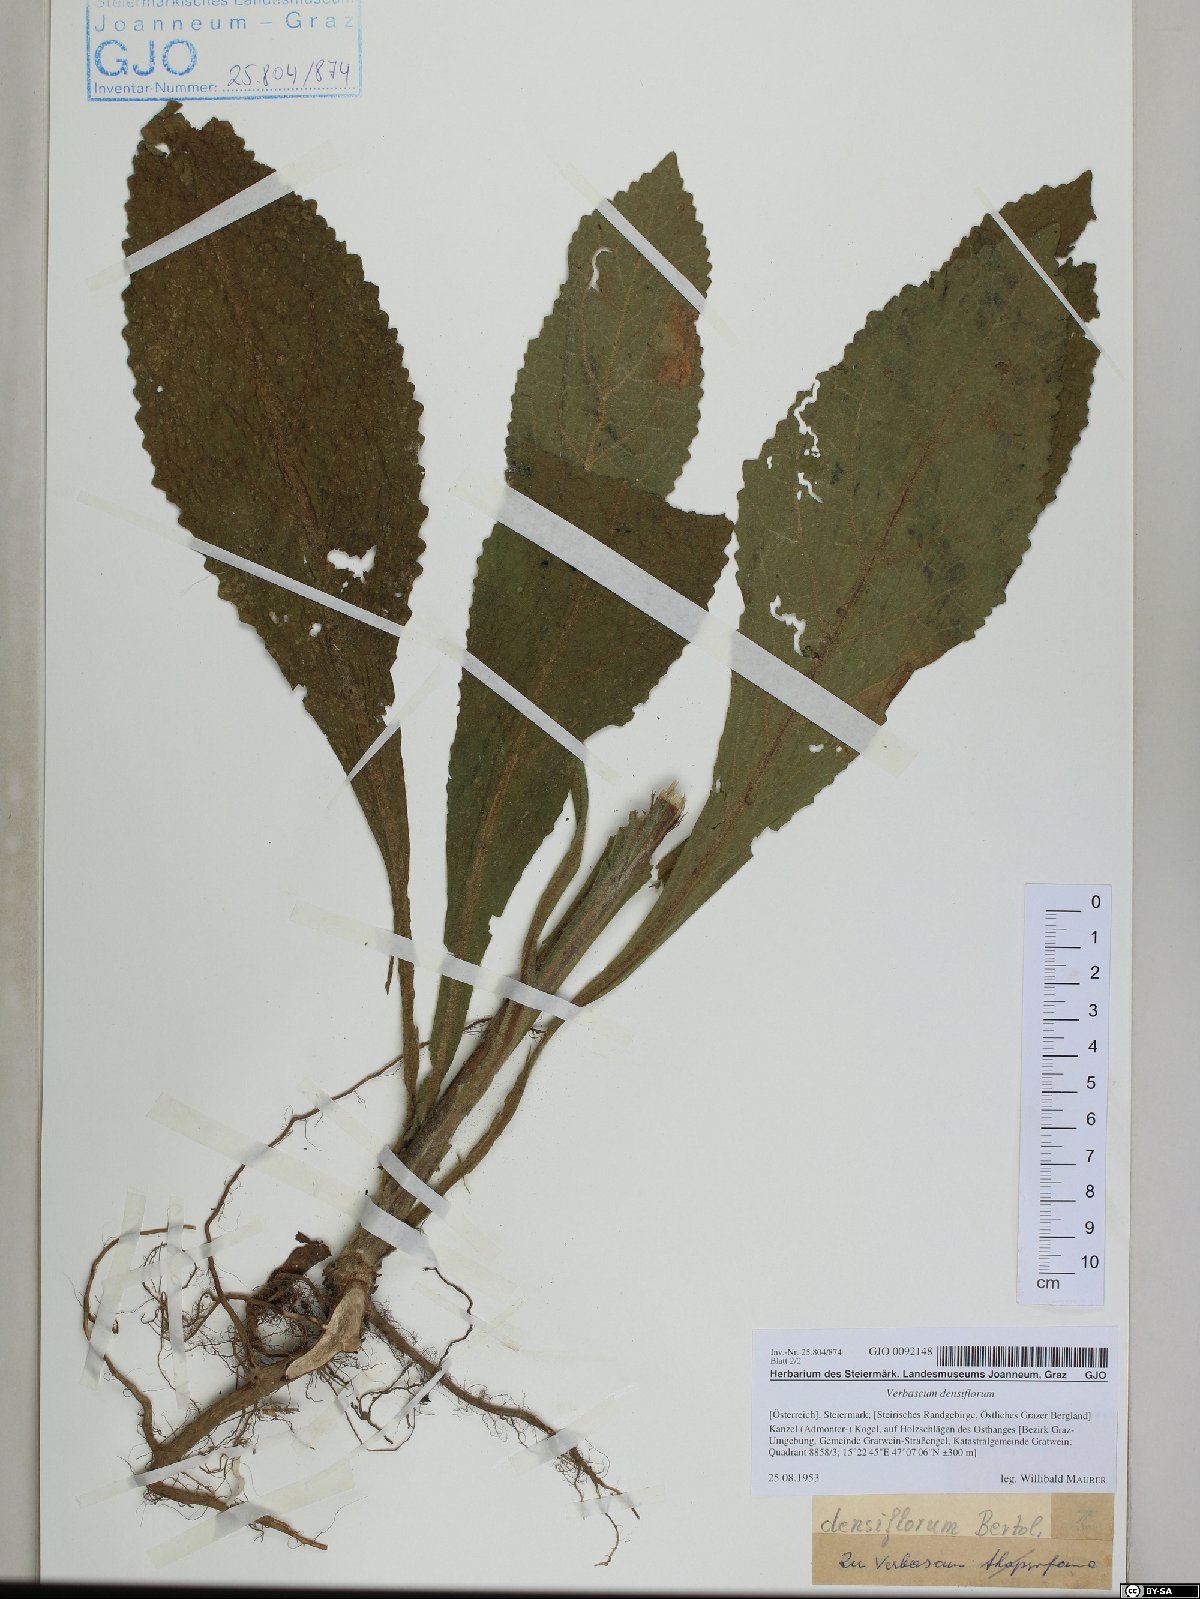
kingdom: Plantae
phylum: Tracheophyta
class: Magnoliopsida
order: Lamiales
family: Scrophulariaceae
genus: Verbascum
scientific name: Verbascum densiflorum
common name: Dense-flowered mullein
